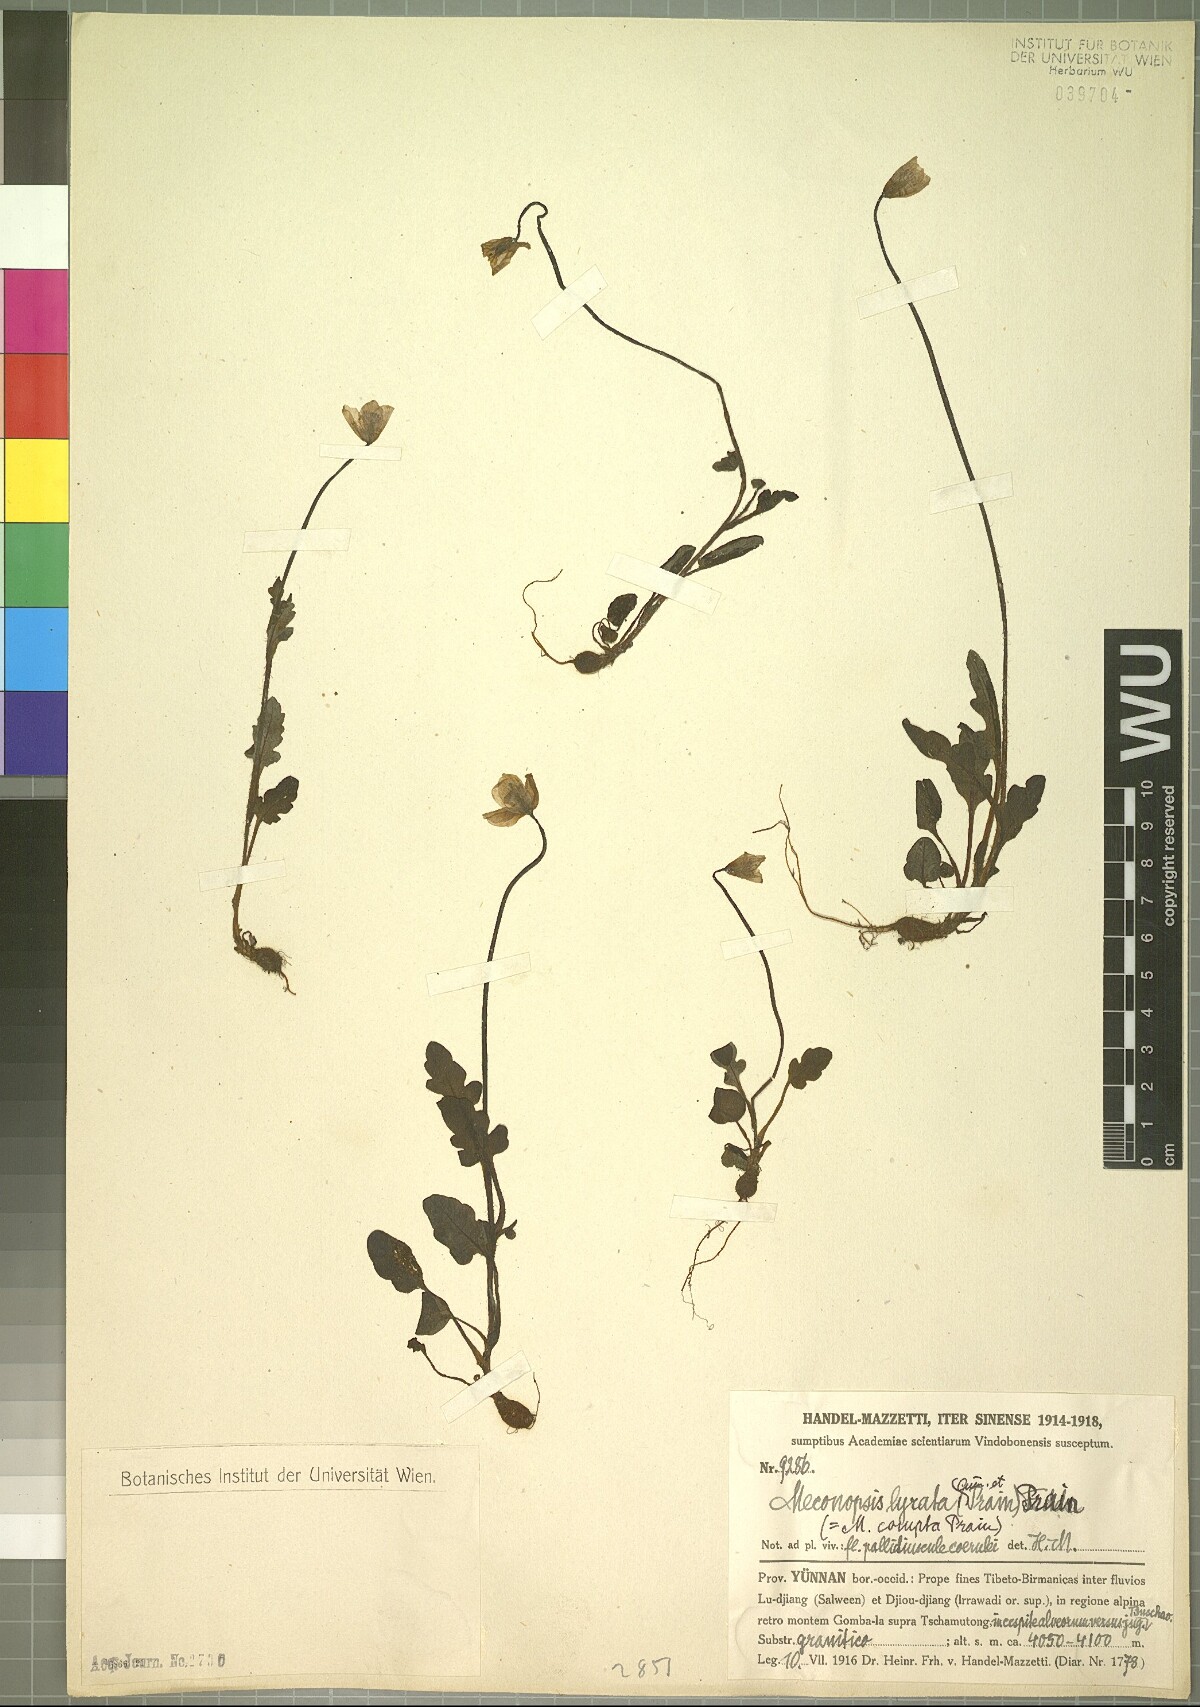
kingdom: Plantae
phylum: Tracheophyta
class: Magnoliopsida
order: Ranunculales
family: Papaveraceae
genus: Meconopsis
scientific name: Meconopsis lyrata
